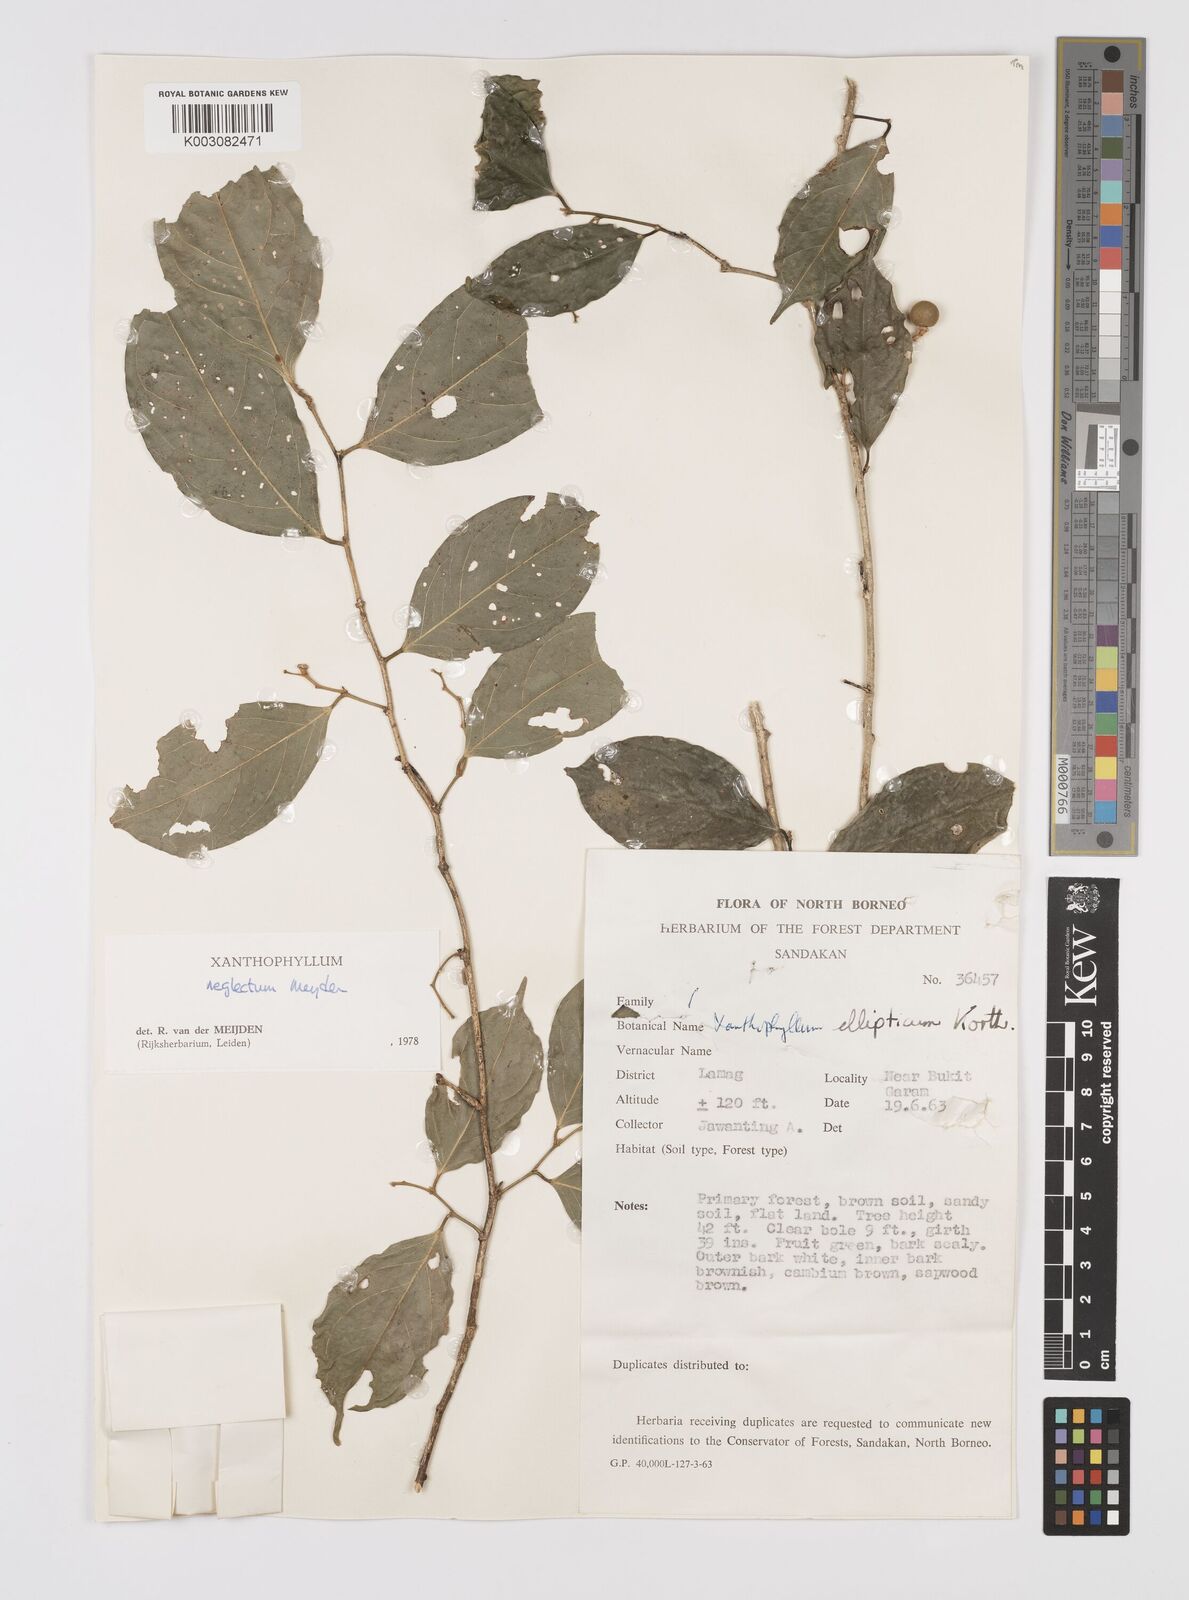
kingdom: Plantae
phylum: Tracheophyta
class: Magnoliopsida
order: Fabales
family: Polygalaceae
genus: Xanthophyllum
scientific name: Xanthophyllum neglectum
